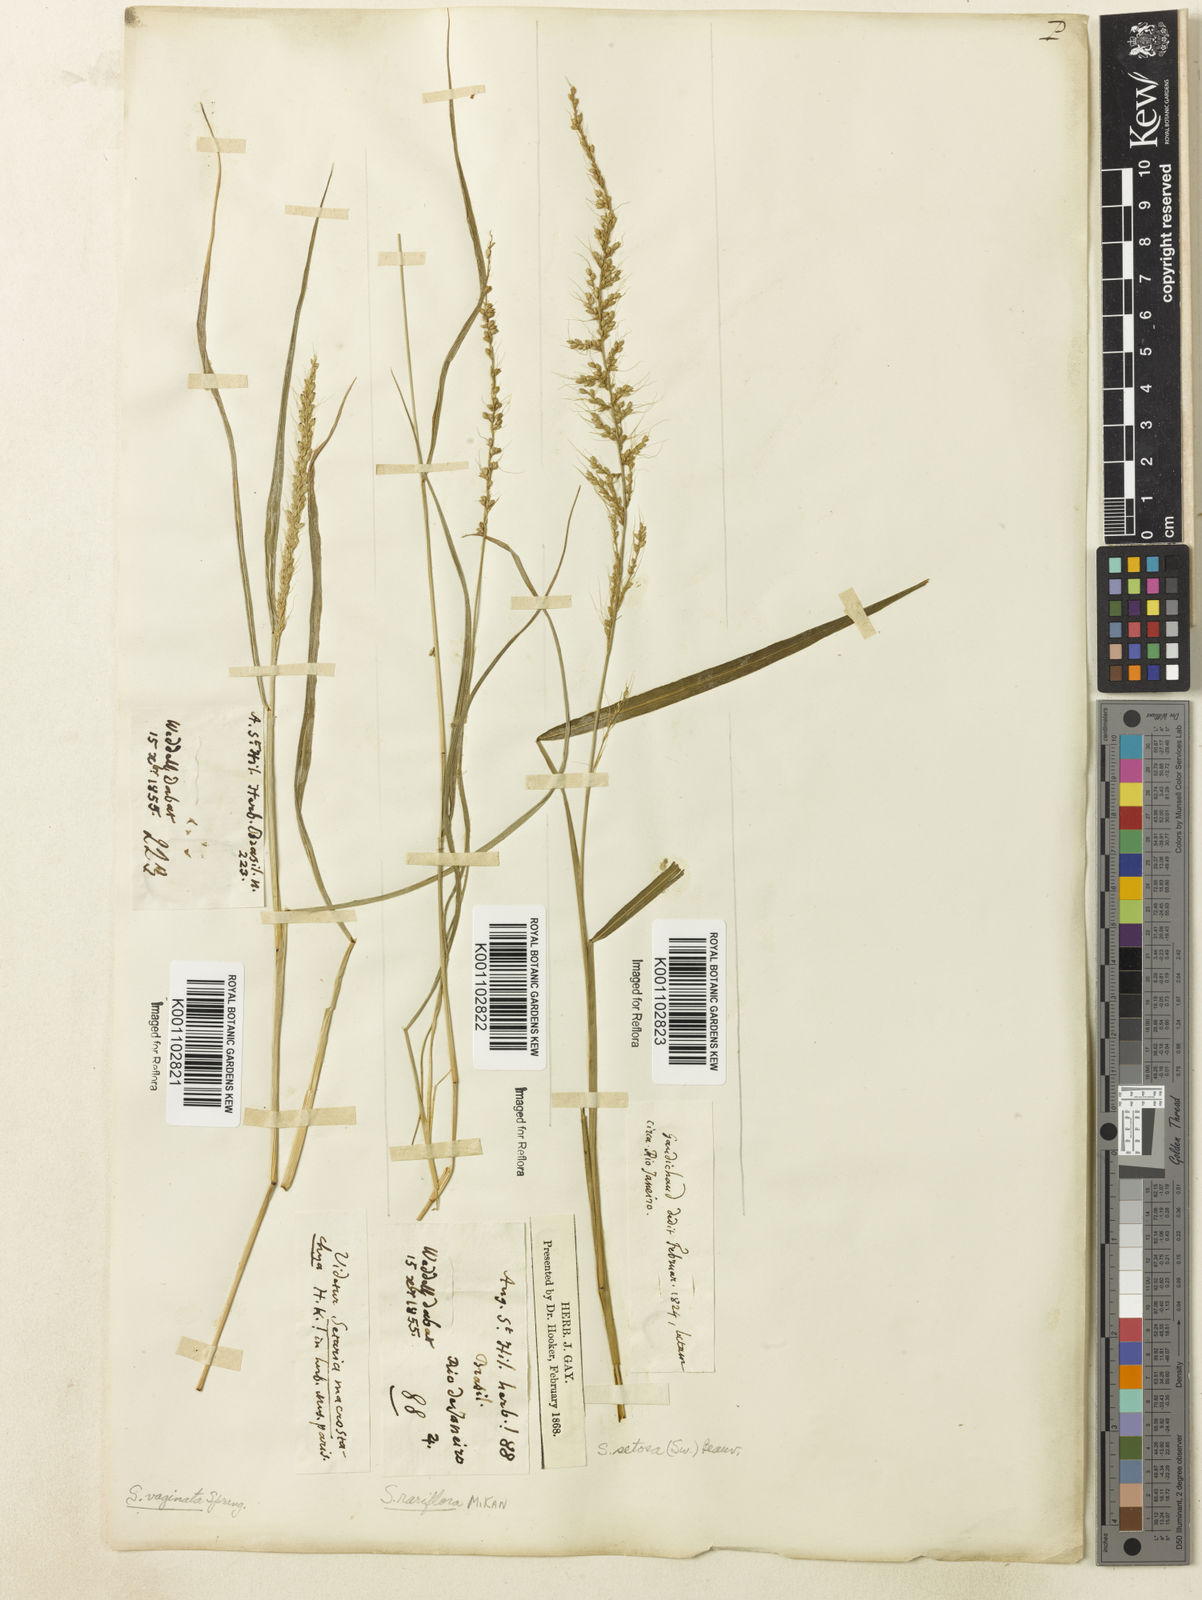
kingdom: Plantae
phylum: Tracheophyta
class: Liliopsida
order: Poales
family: Poaceae
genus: Setaria
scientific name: Setaria setosa
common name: West indies bristle grass
